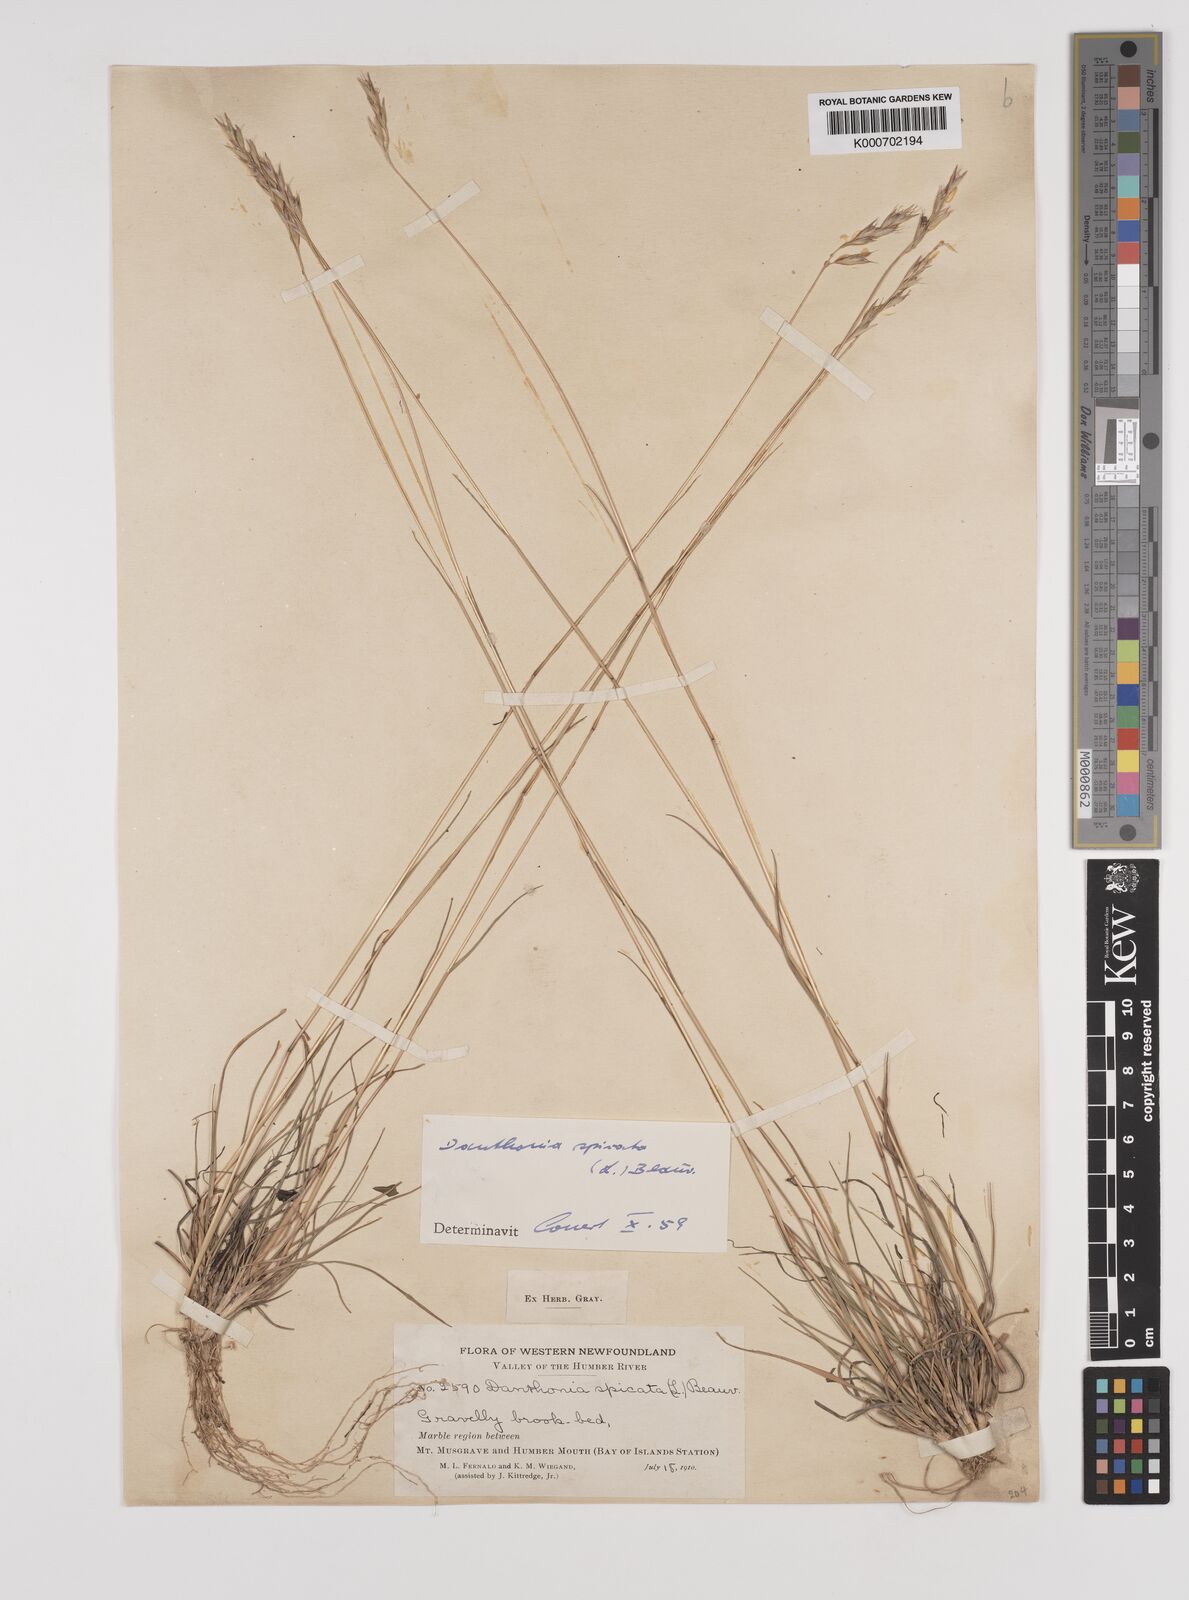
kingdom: Plantae
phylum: Tracheophyta
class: Liliopsida
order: Poales
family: Poaceae
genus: Danthonia
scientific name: Danthonia spicata
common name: Common wild oatgrass
